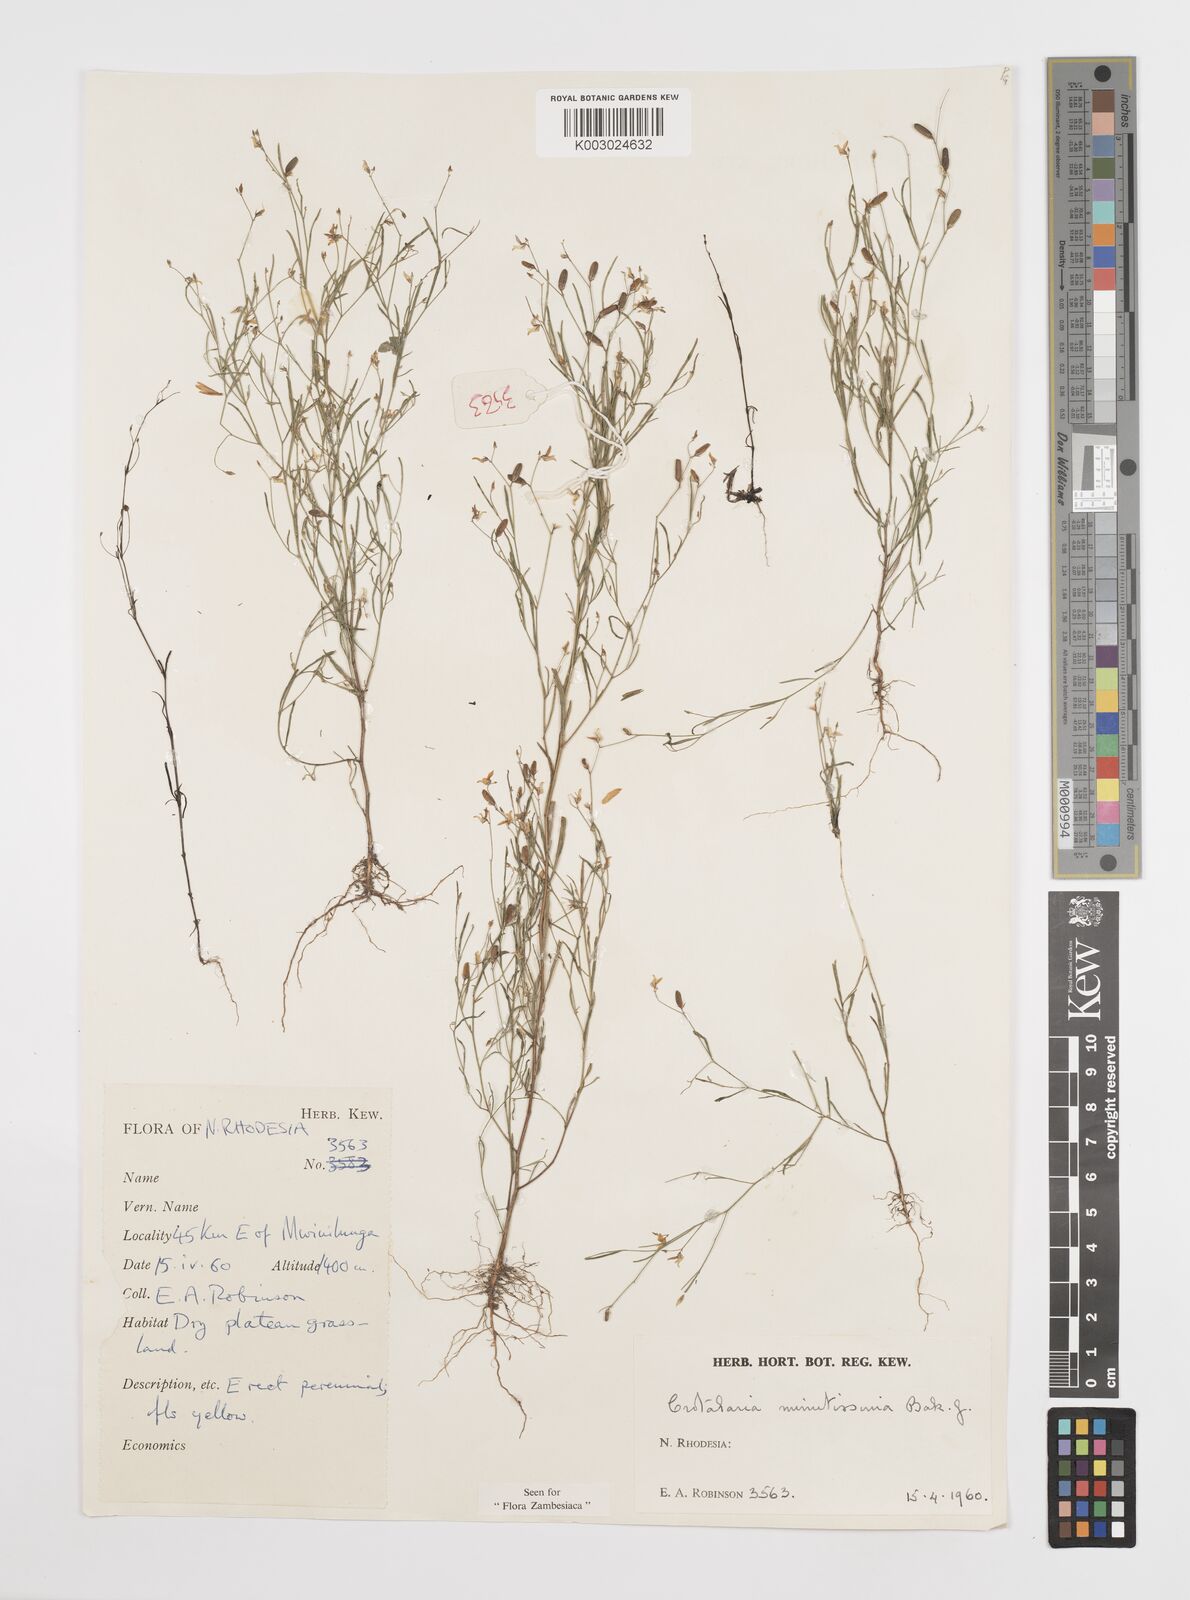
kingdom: Plantae
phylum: Tracheophyta
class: Magnoliopsida
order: Fabales
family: Fabaceae
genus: Crotalaria
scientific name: Crotalaria minutissima
